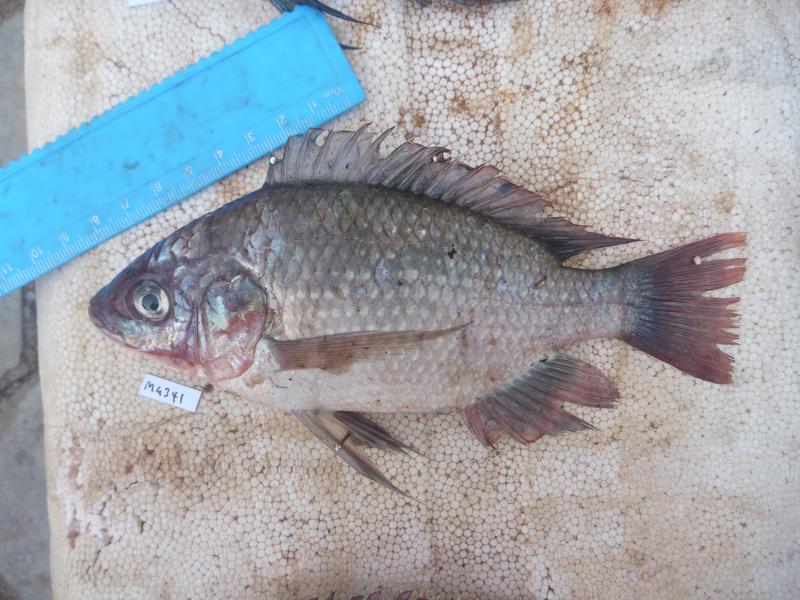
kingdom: Animalia
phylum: Chordata
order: Perciformes
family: Cichlidae
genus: Oreochromis
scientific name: Oreochromis esculentus
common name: Carp
